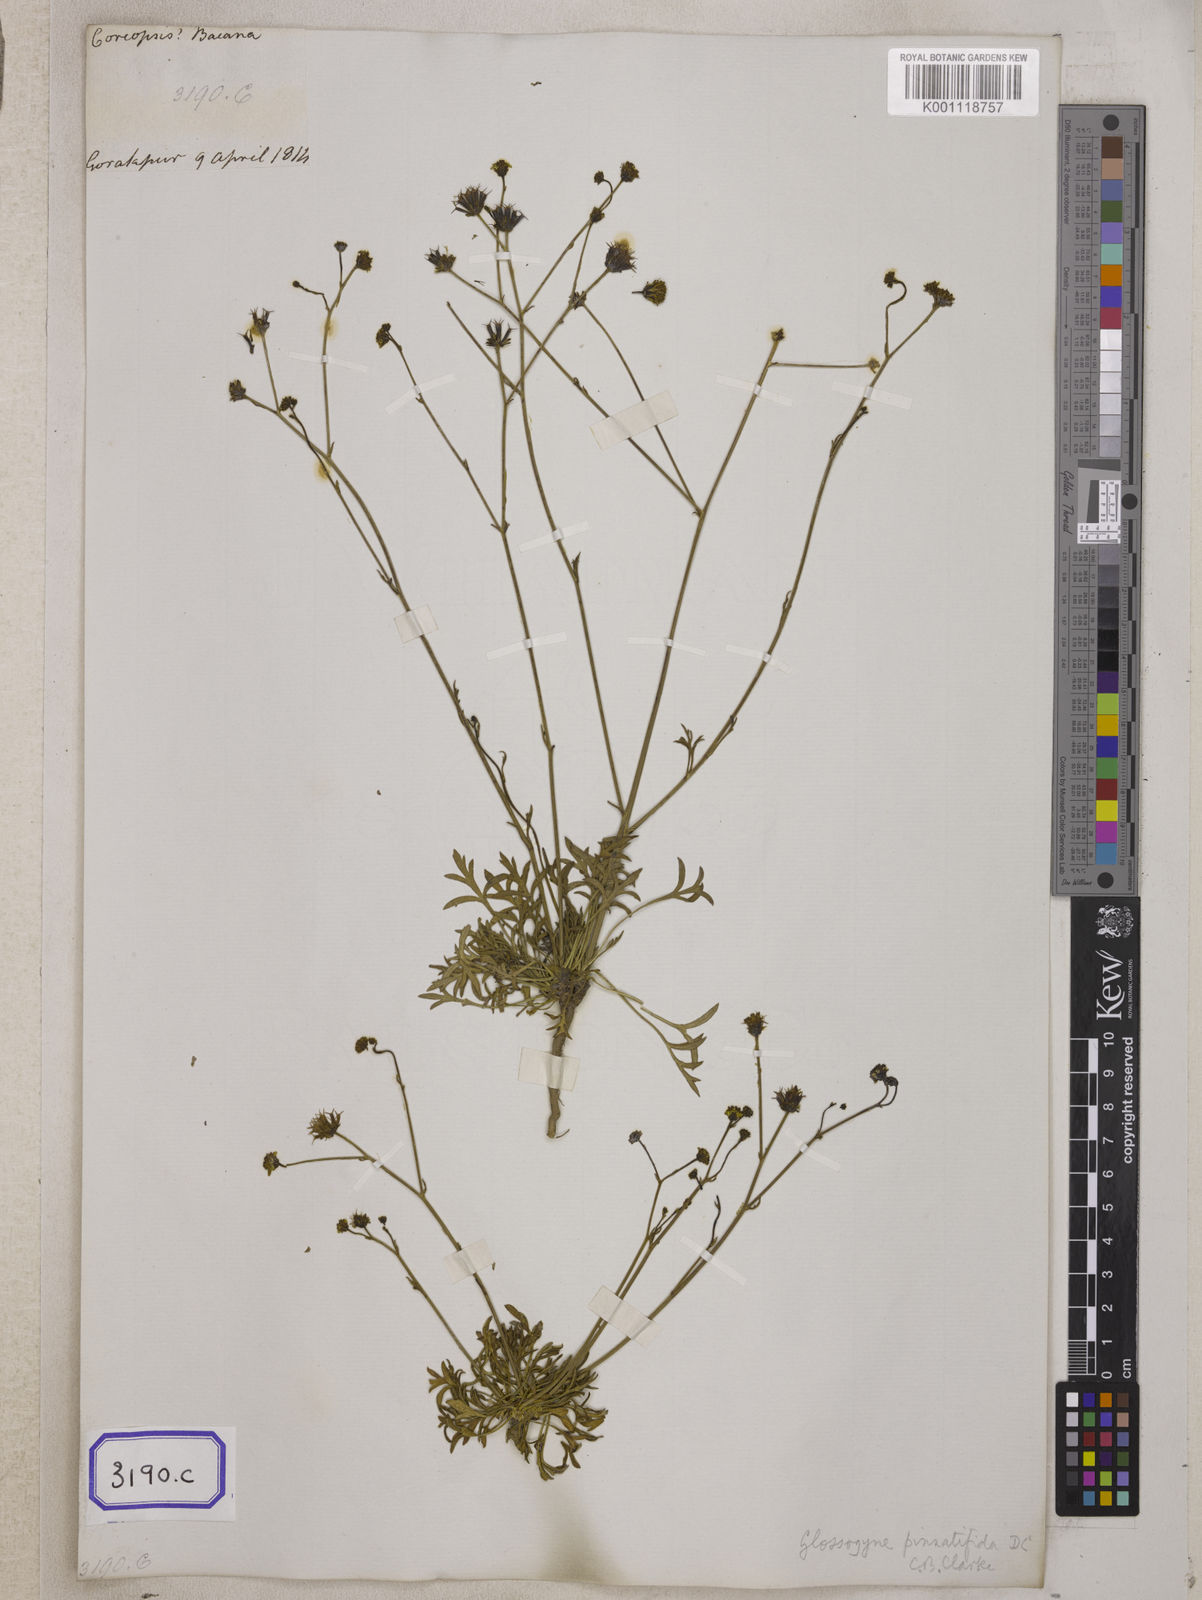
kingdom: Plantae
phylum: Tracheophyta
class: Magnoliopsida
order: Asterales
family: Asteraceae
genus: Bidens
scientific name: Bidens
